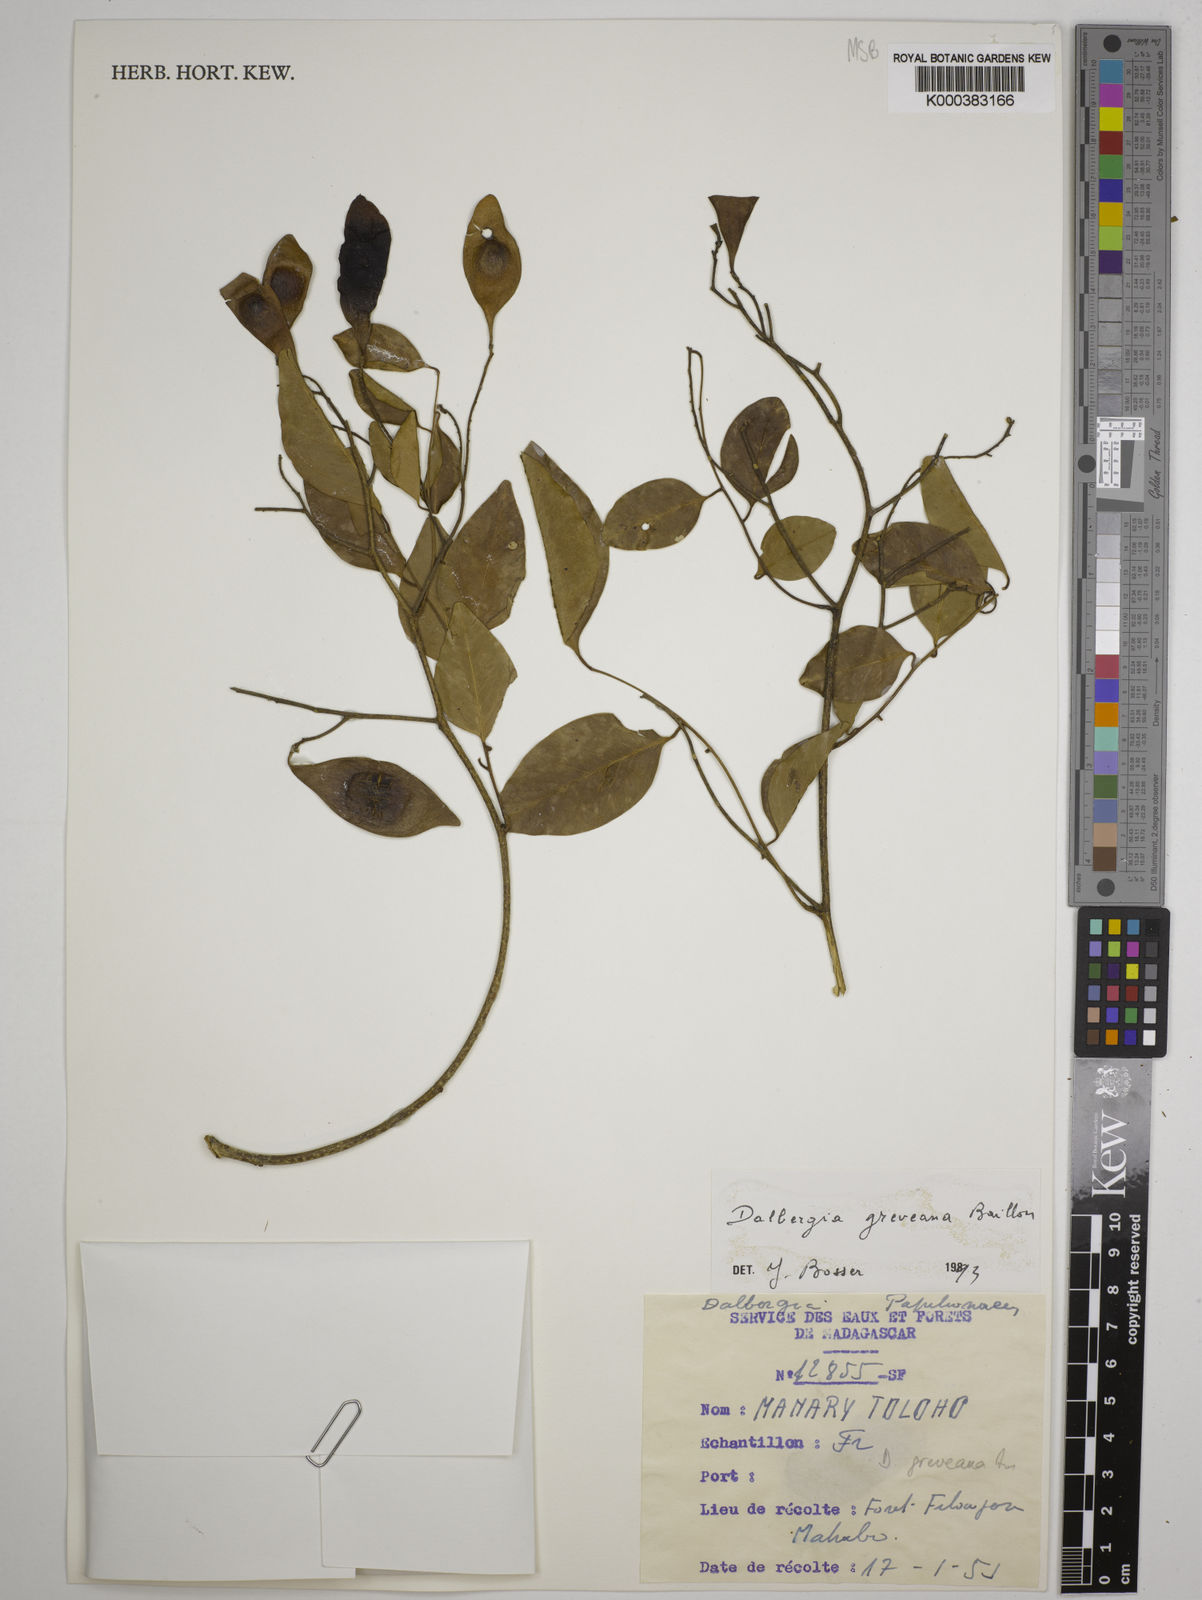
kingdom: Plantae
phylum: Tracheophyta
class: Magnoliopsida
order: Fabales
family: Fabaceae
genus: Dalbergia
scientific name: Dalbergia greveana
